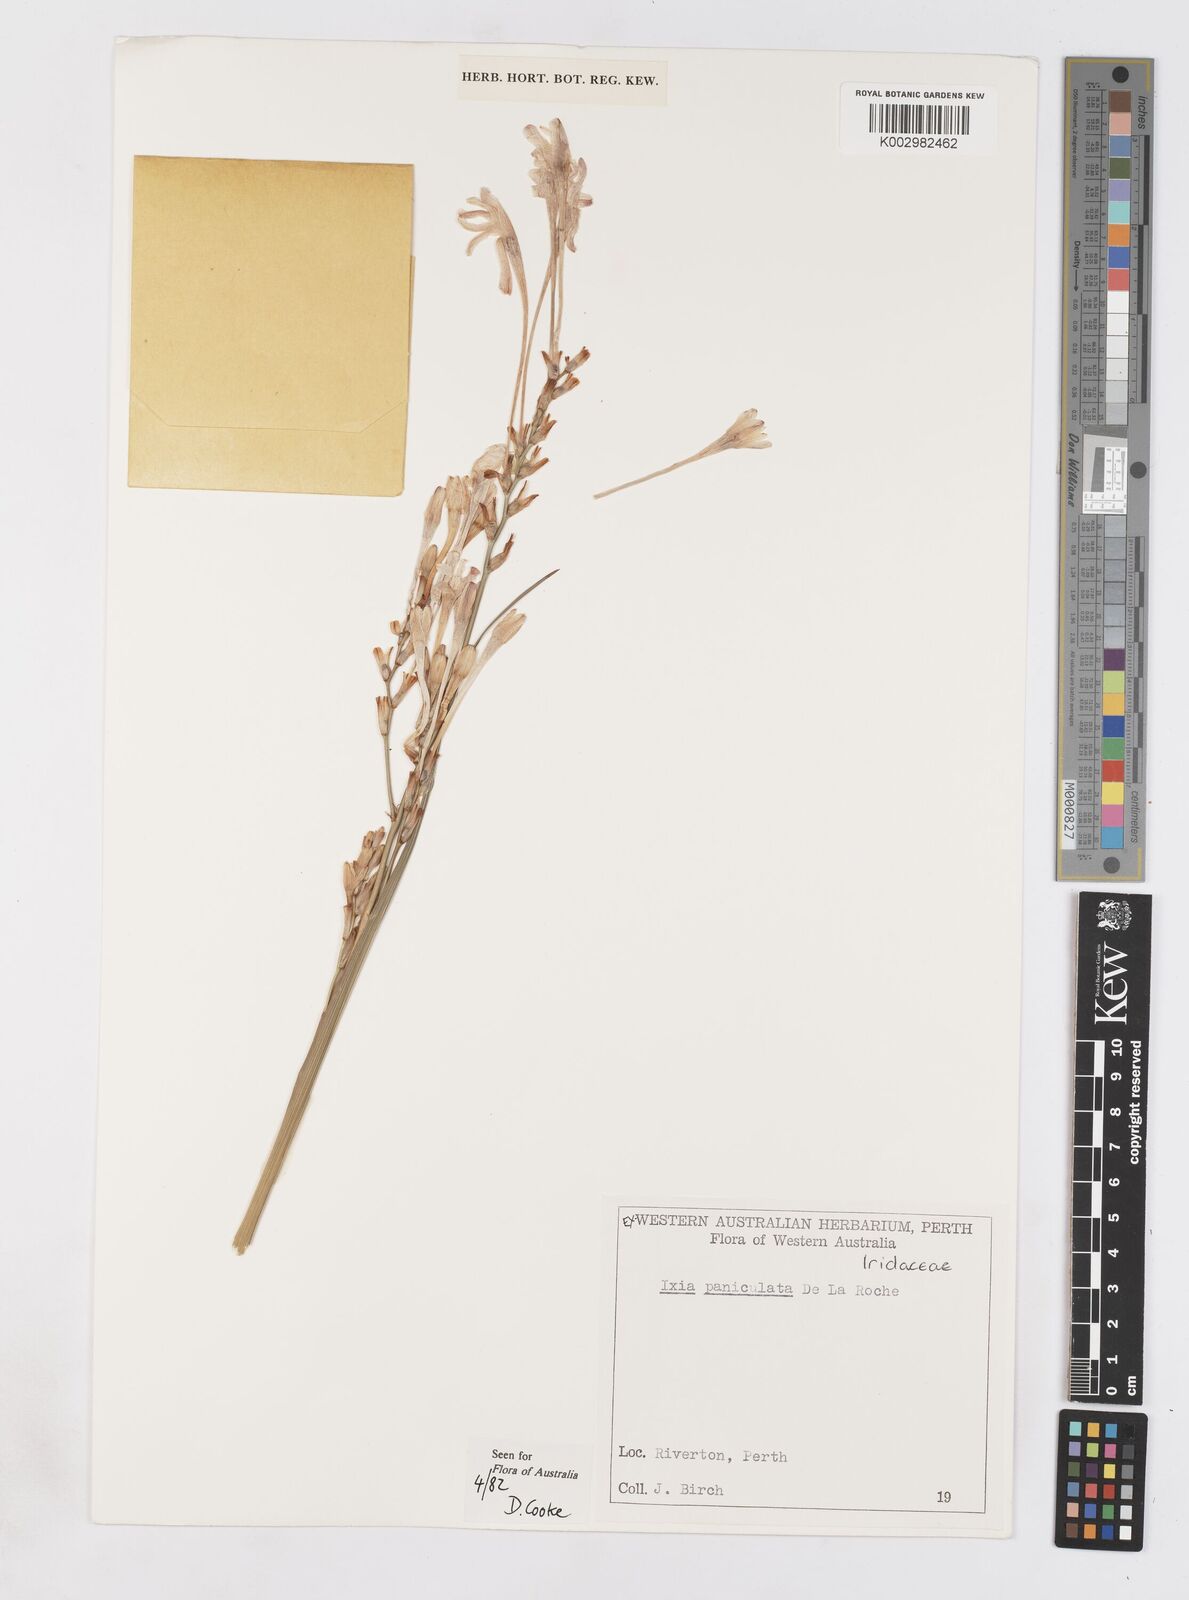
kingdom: Plantae
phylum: Tracheophyta
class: Liliopsida
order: Asparagales
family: Iridaceae
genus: Ixia
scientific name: Ixia paniculata
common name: Tubular corn-lily
